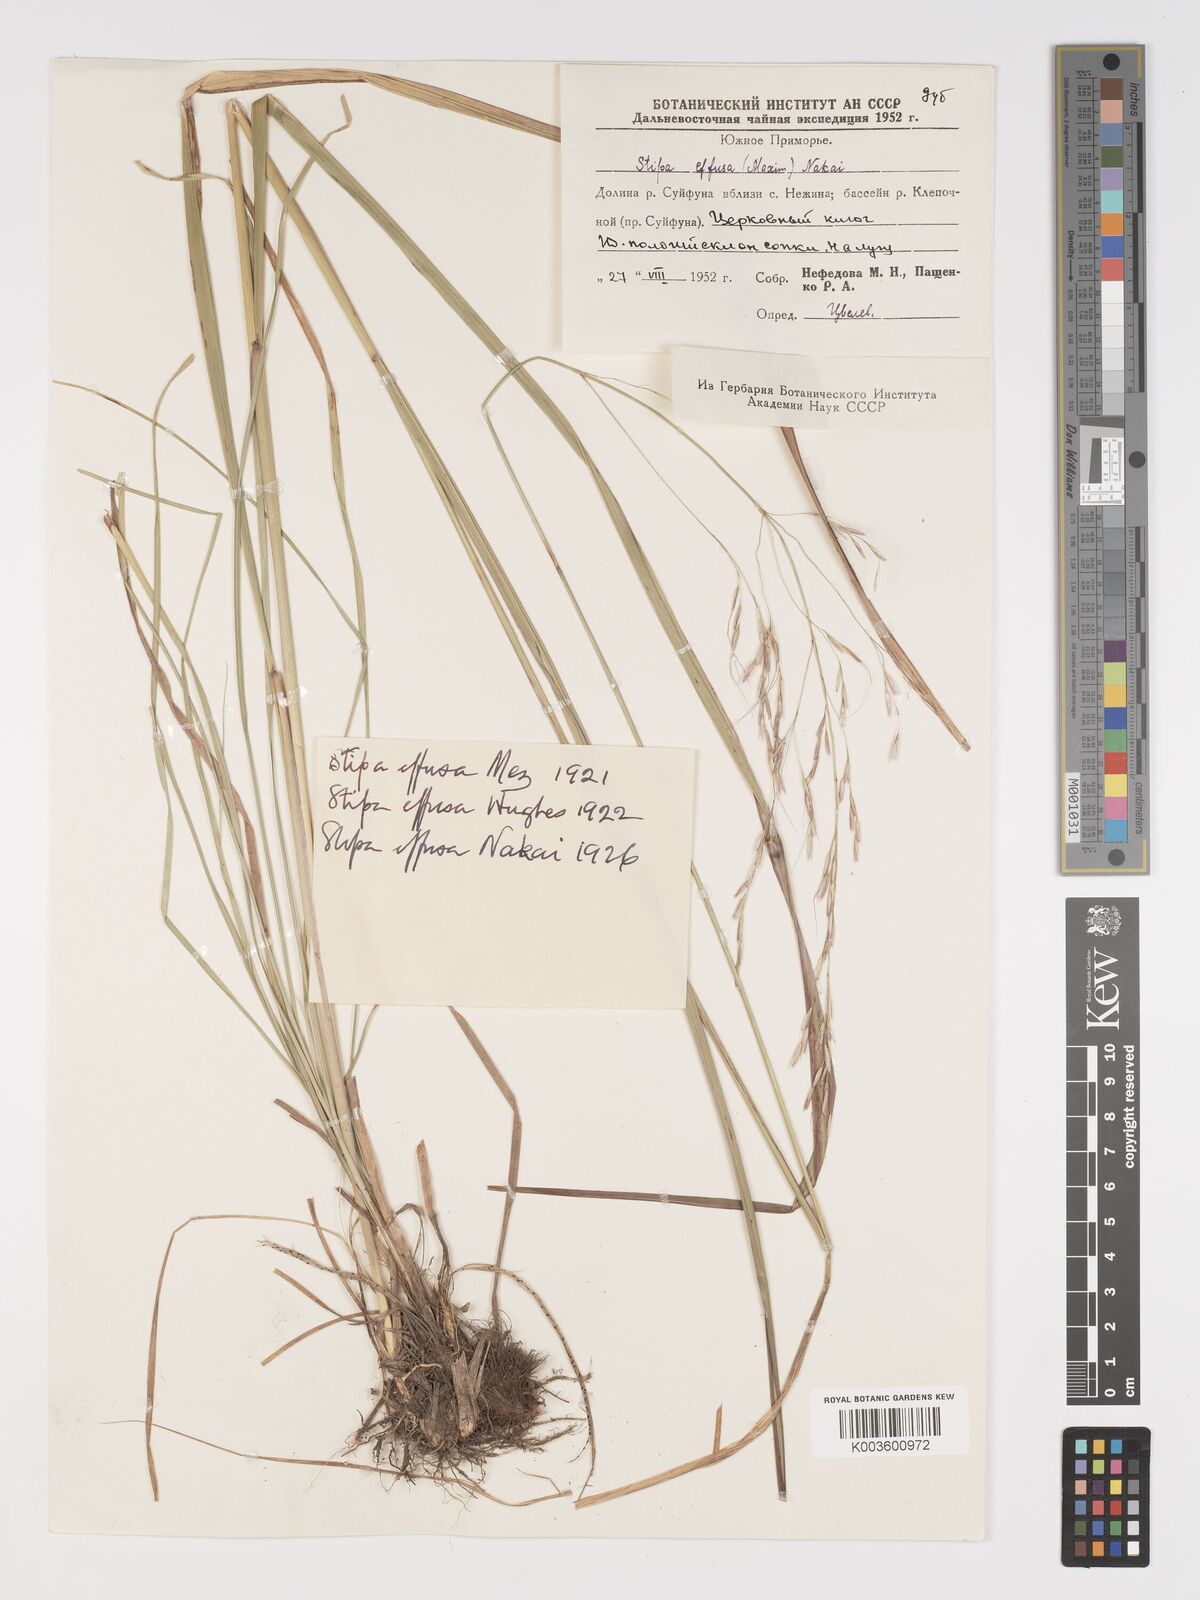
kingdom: Plantae
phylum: Tracheophyta
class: Liliopsida
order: Poales
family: Poaceae
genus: Achnatherum
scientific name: Achnatherum pekinense
